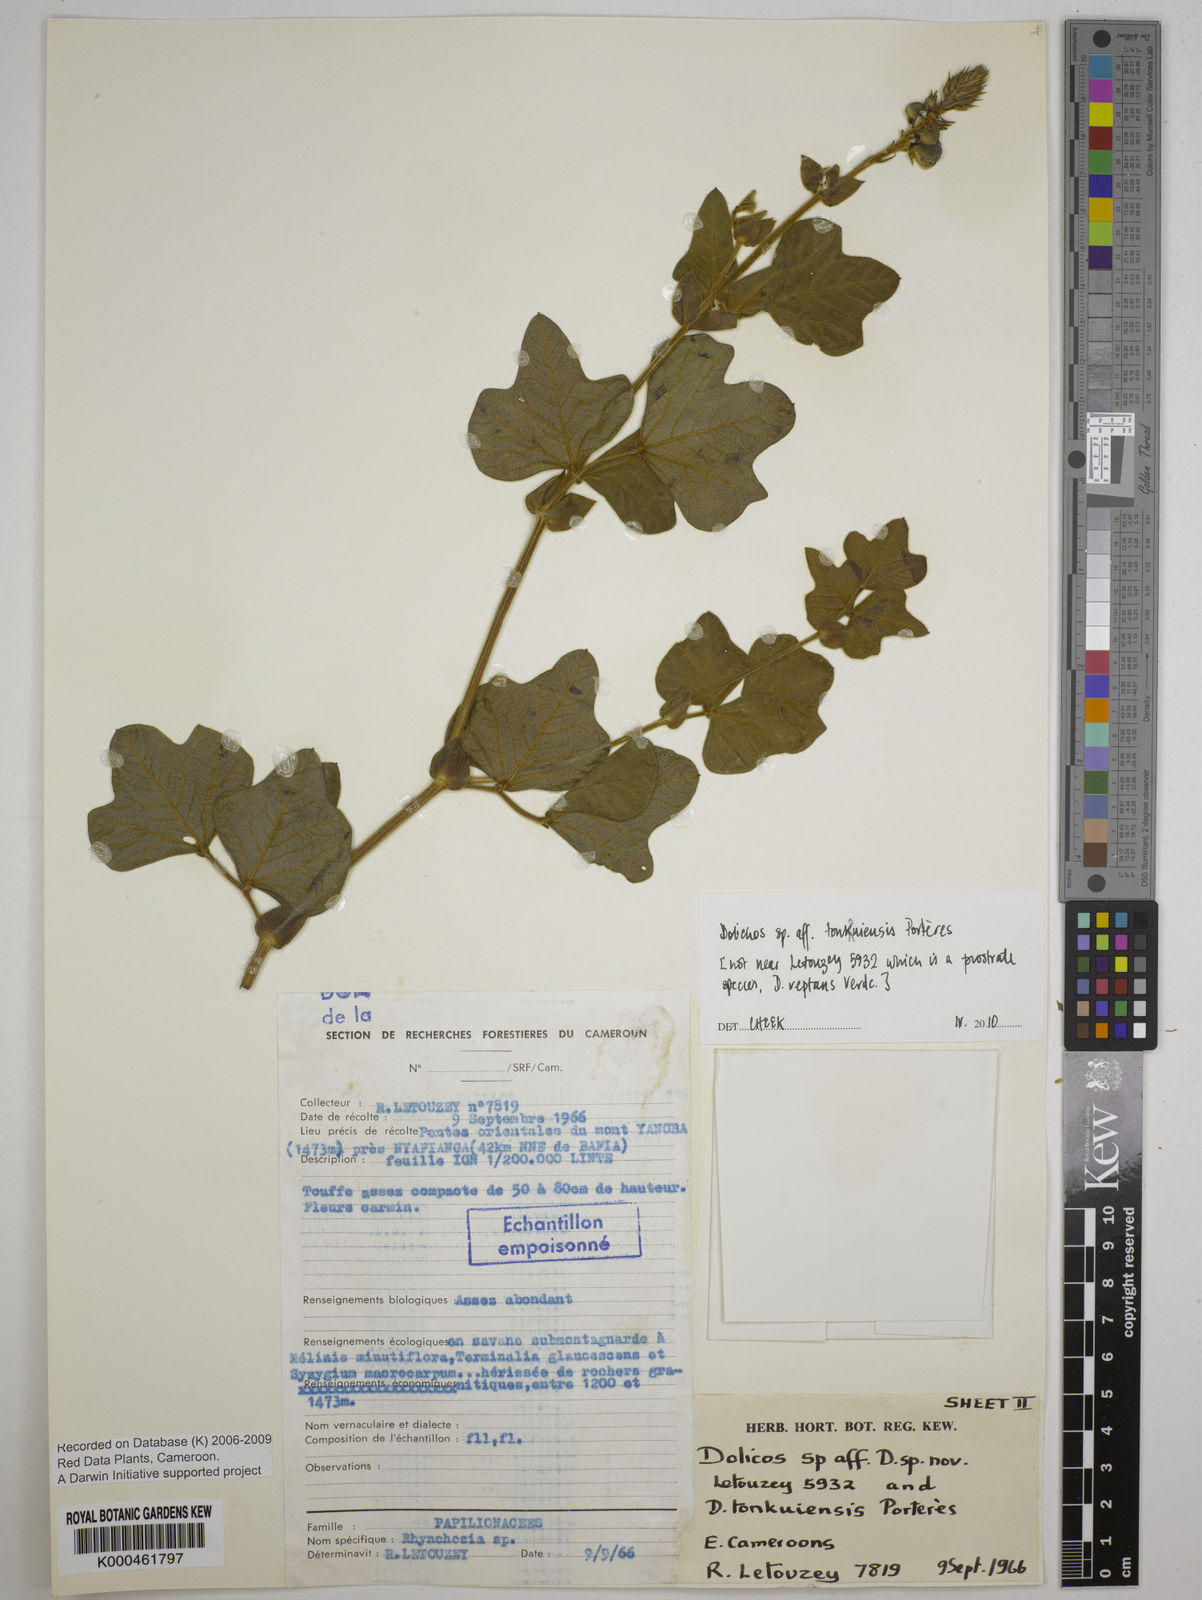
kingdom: Plantae
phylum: Tracheophyta
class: Magnoliopsida
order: Fabales
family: Fabaceae
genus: Dolichos
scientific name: Dolichos
